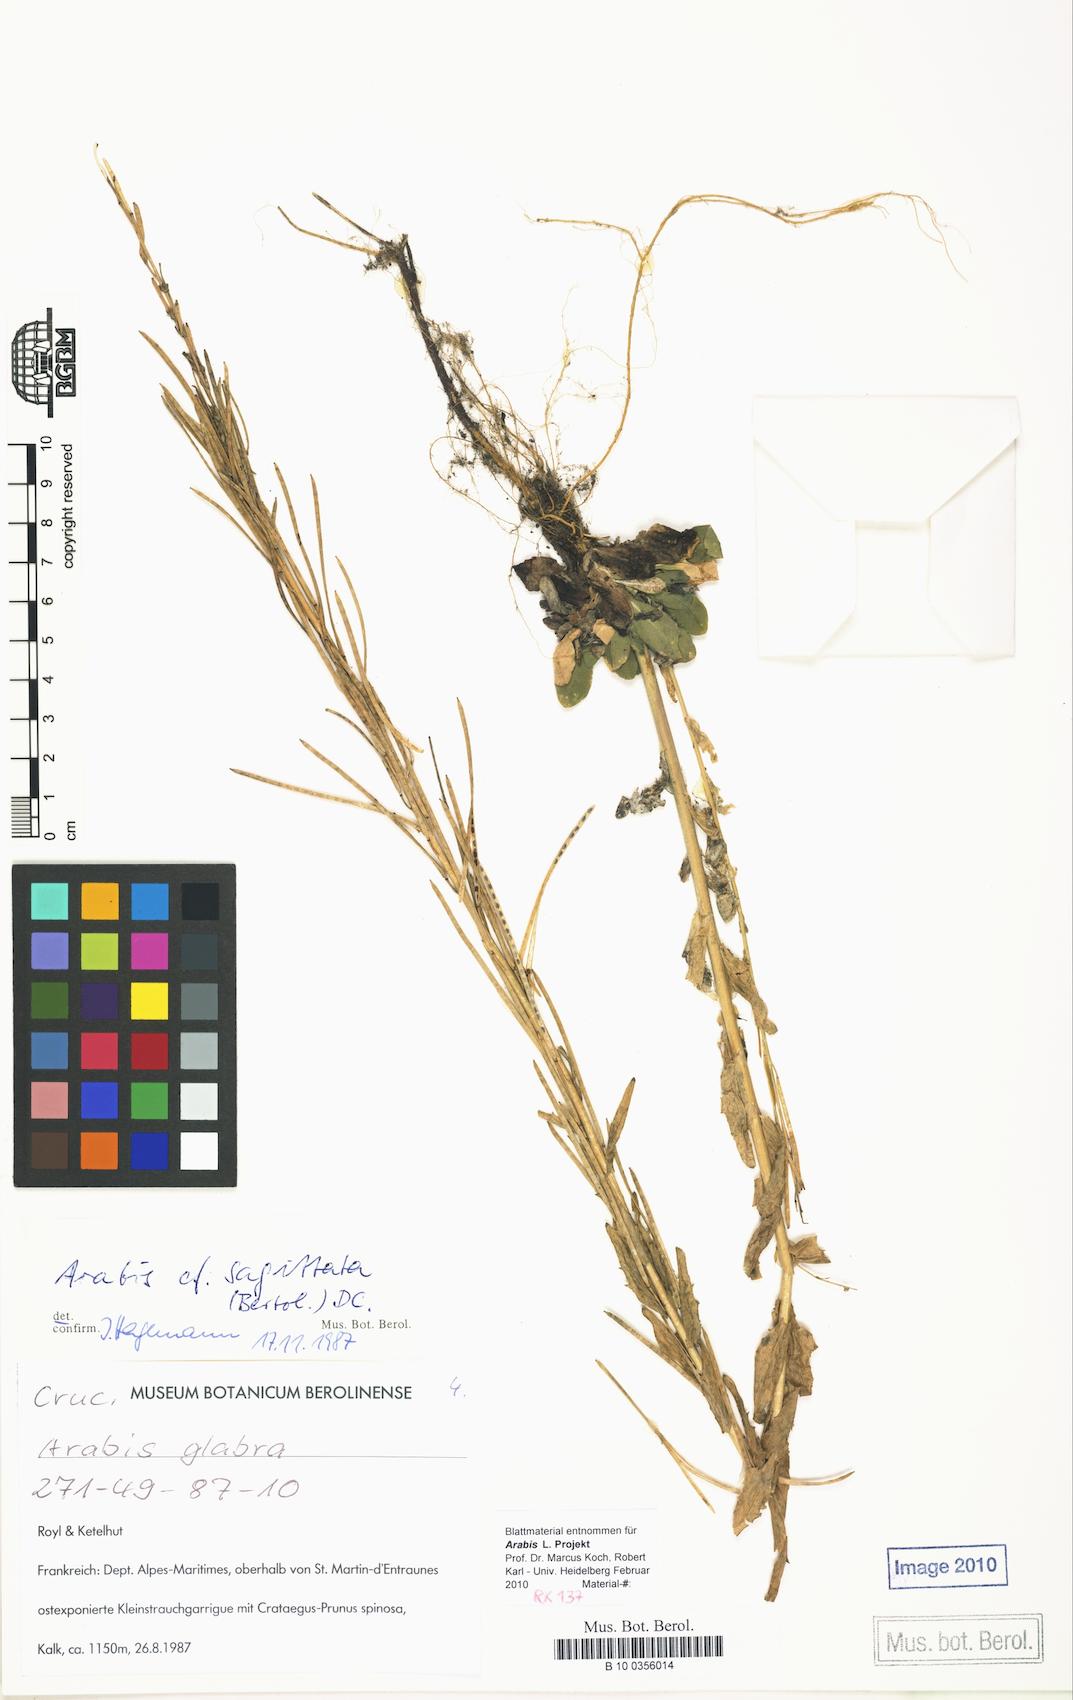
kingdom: Plantae
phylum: Tracheophyta
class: Magnoliopsida
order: Brassicales
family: Brassicaceae
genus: Arabis
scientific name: Arabis planisiliqua
